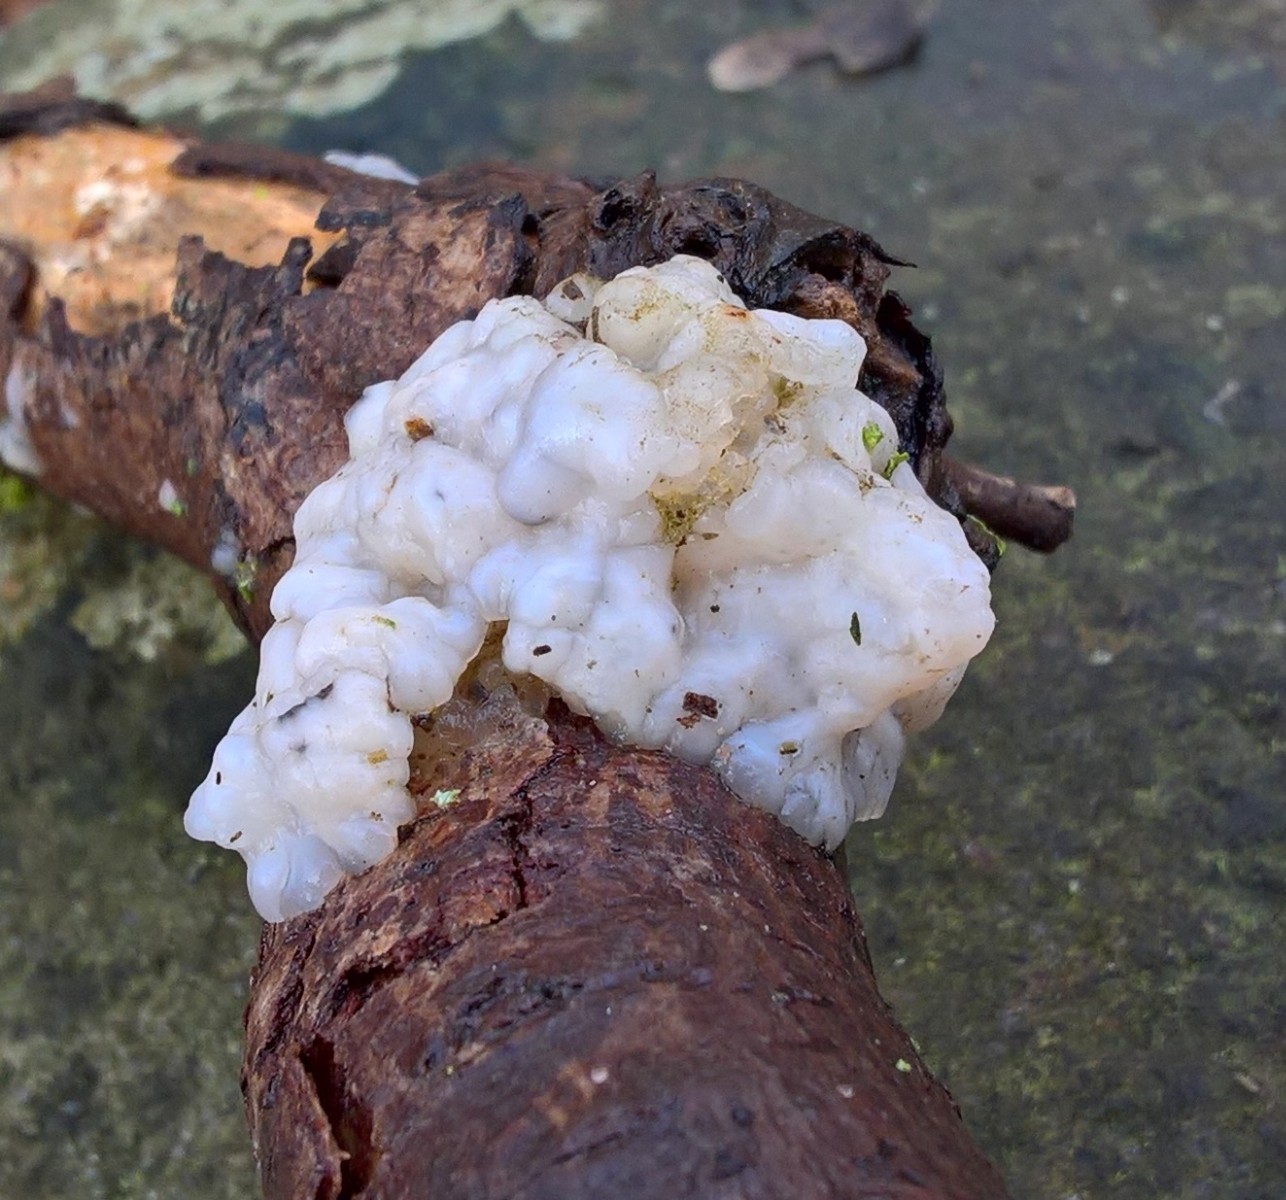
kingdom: Fungi
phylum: Basidiomycota
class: Agaricomycetes
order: Auriculariales
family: Auriculariaceae
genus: Exidia
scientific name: Exidia thuretiana
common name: hvidlig bævretop
